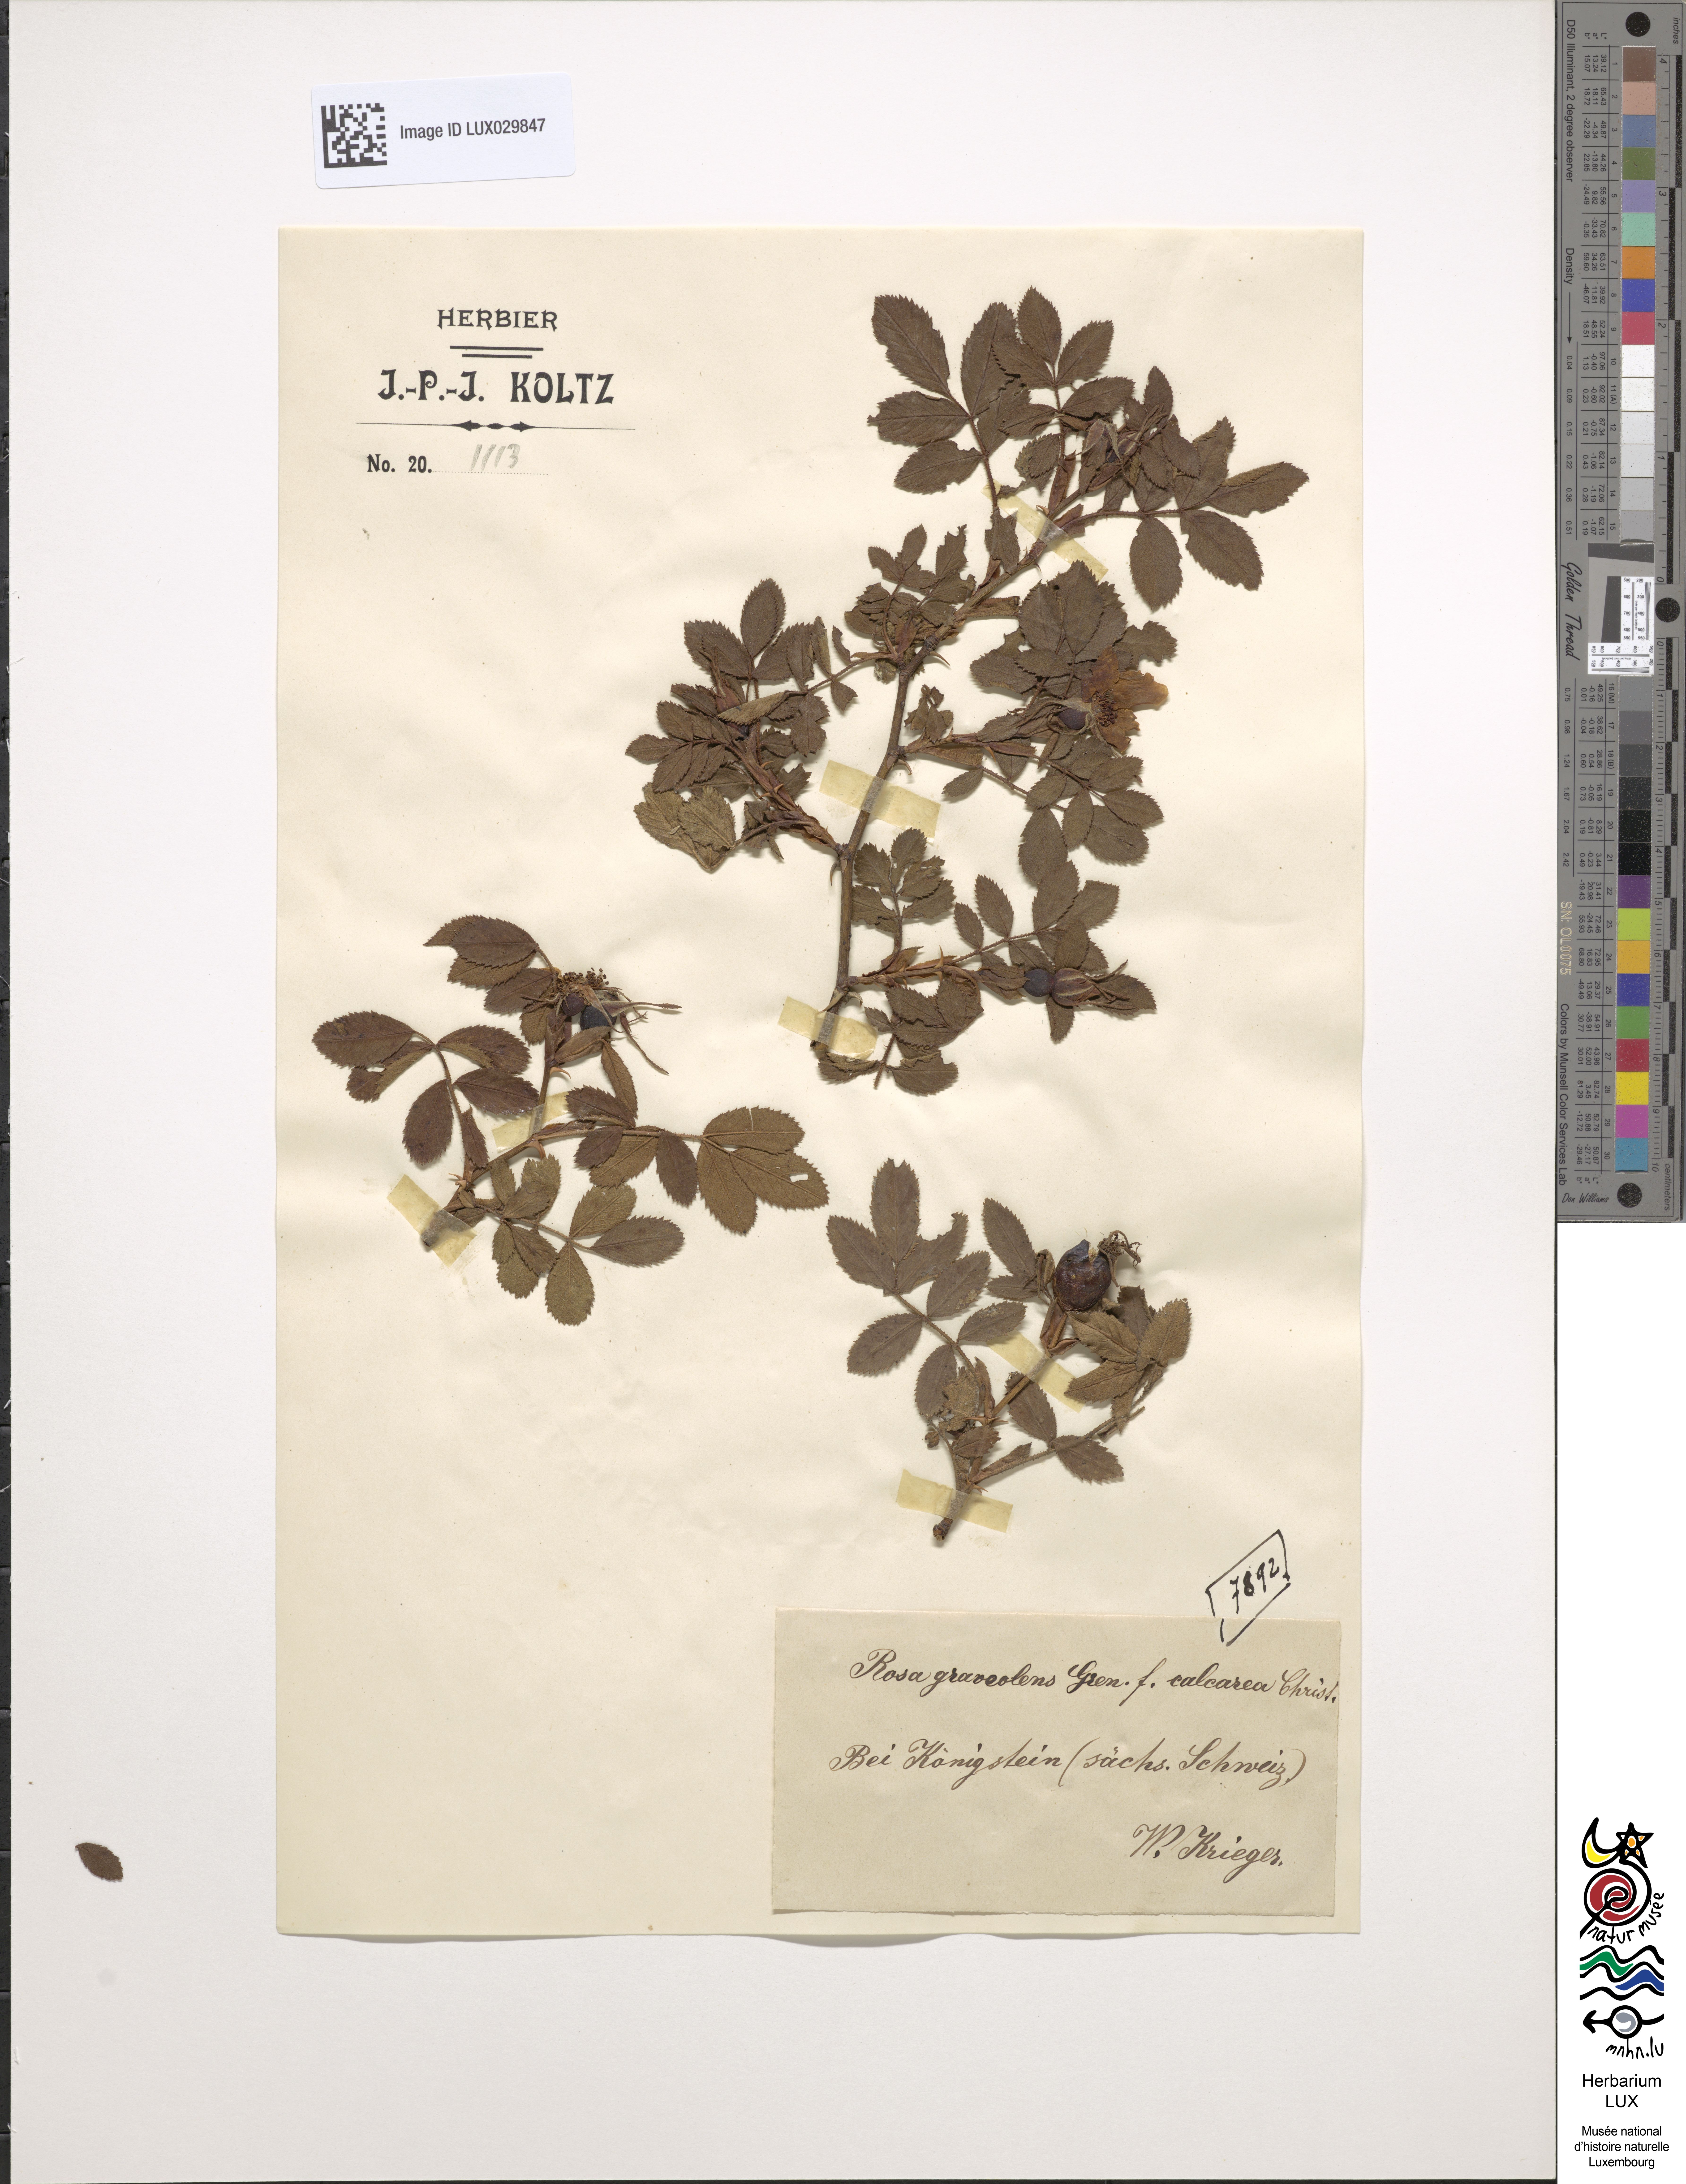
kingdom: Plantae
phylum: Tracheophyta
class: Magnoliopsida
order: Rosales
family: Rosaceae
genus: Rosa
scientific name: Rosa inodora
